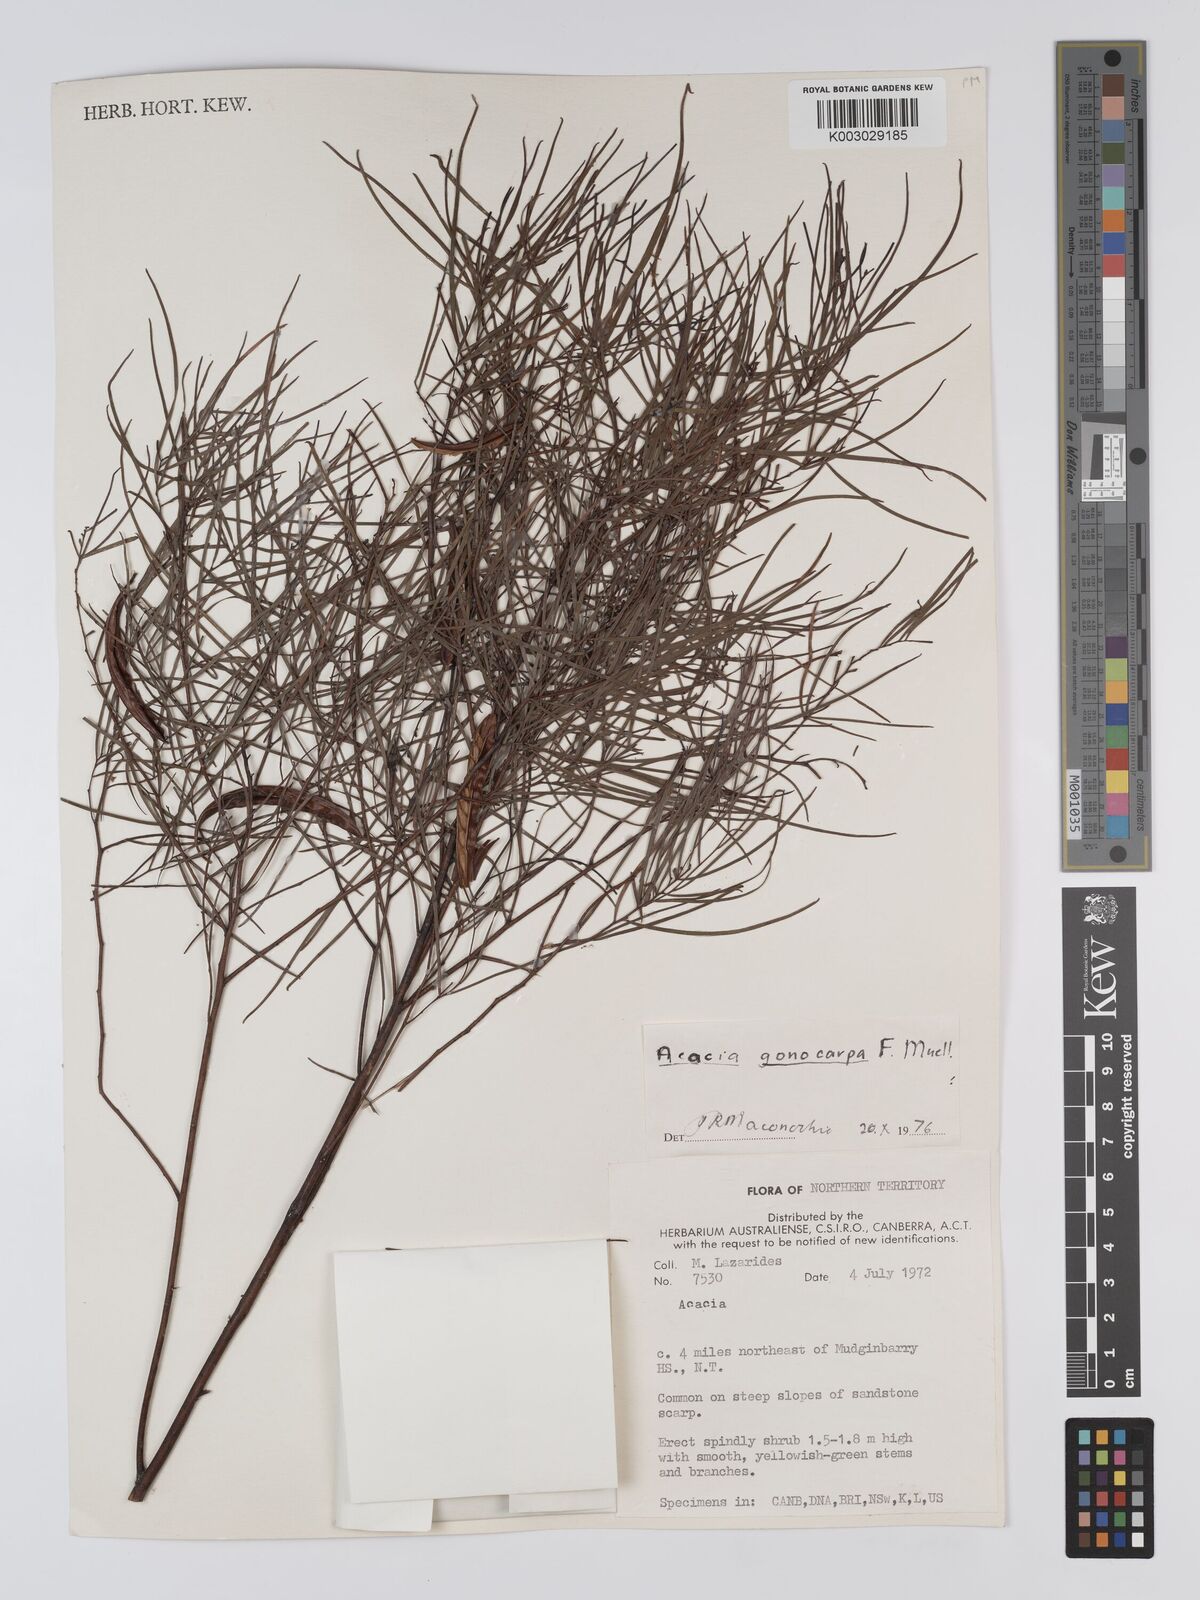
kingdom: Plantae
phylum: Tracheophyta
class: Magnoliopsida
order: Fabales
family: Fabaceae
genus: Acacia
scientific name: Acacia gonocarpa
